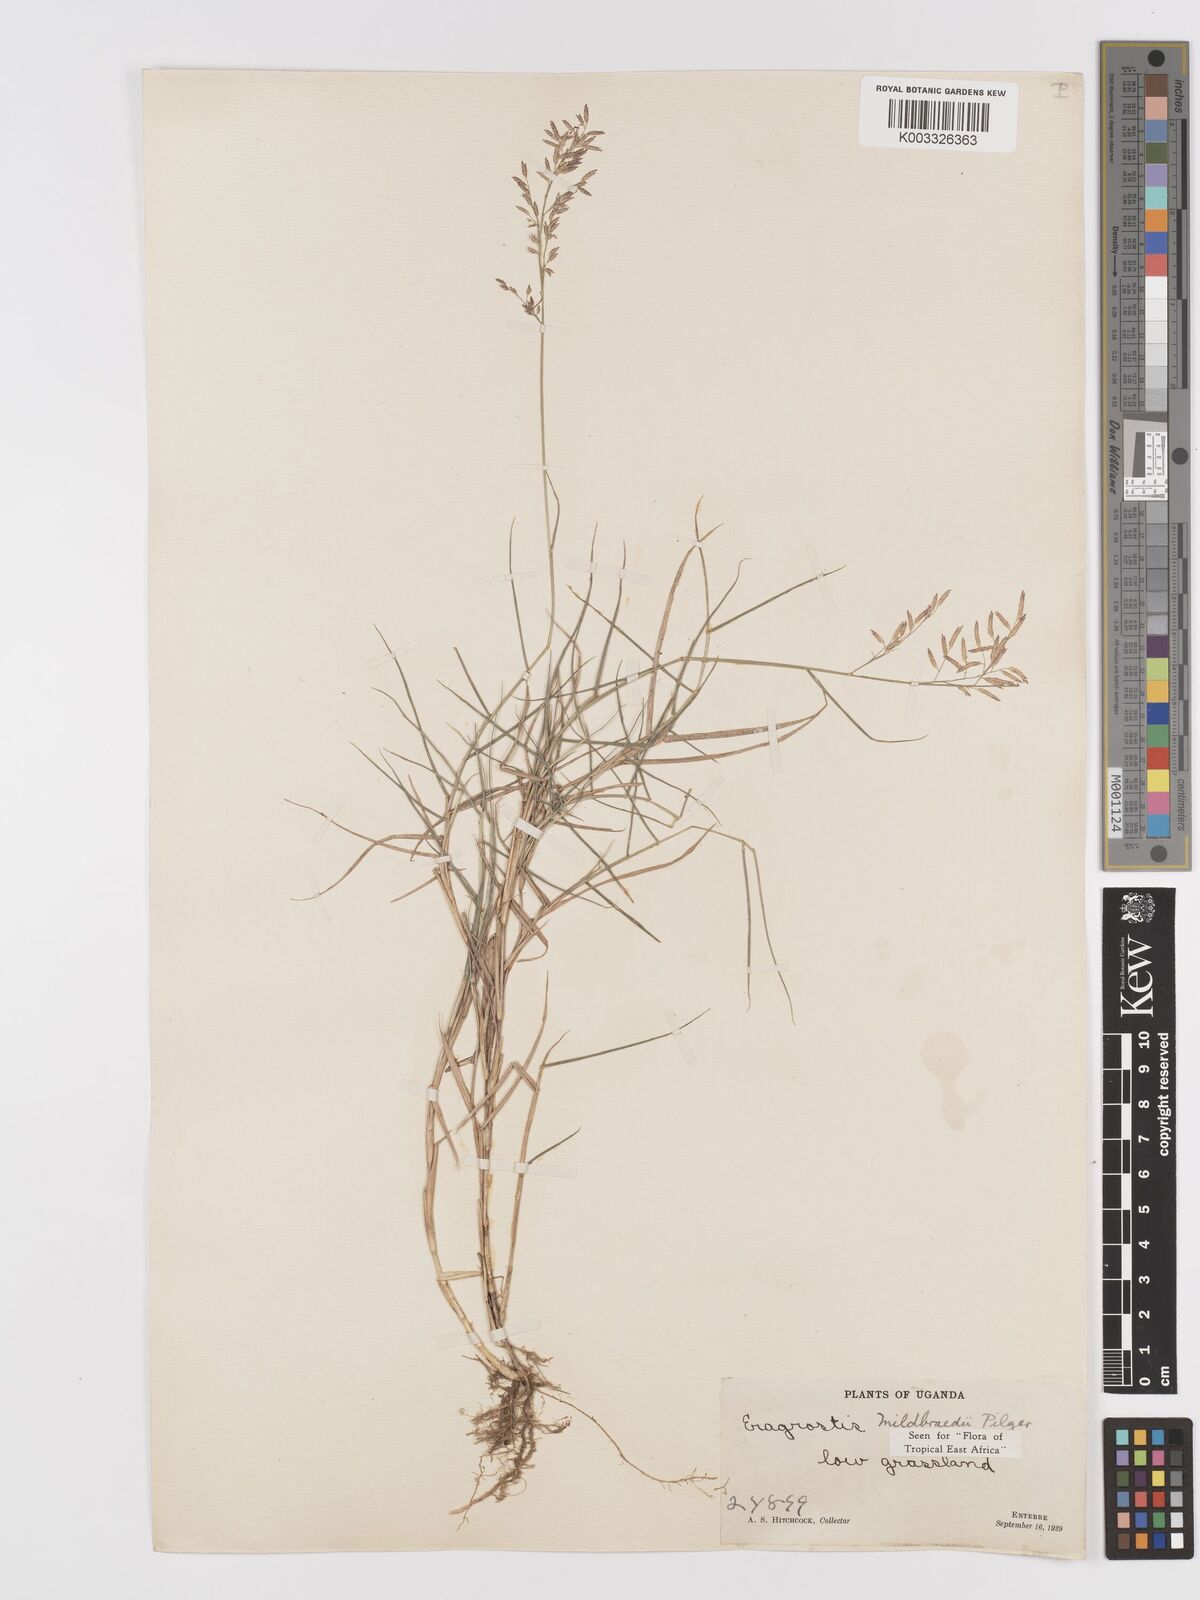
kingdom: Plantae
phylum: Tracheophyta
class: Liliopsida
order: Poales
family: Poaceae
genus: Eragrostis
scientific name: Eragrostis mildbraedii
